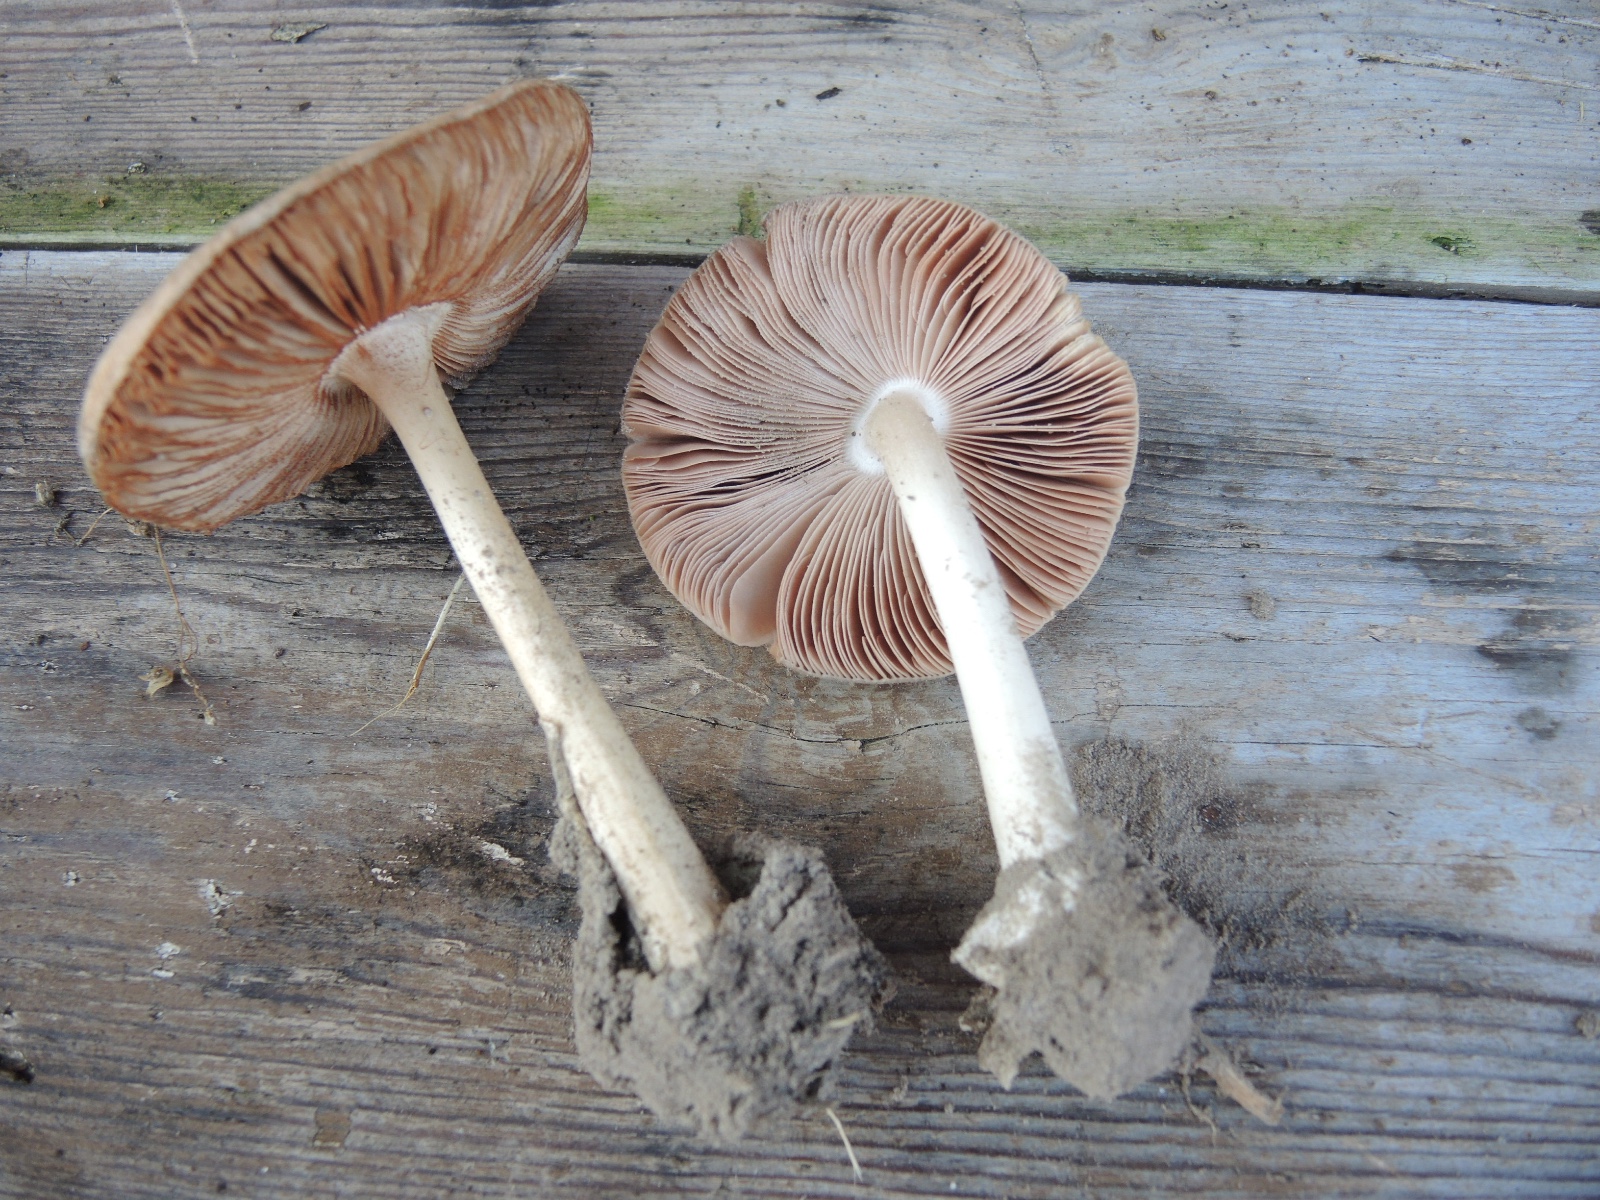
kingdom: Fungi
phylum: Basidiomycota
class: Agaricomycetes
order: Agaricales
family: Pluteaceae
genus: Volvopluteus
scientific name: Volvopluteus gloiocephalus
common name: høj posesvamp
